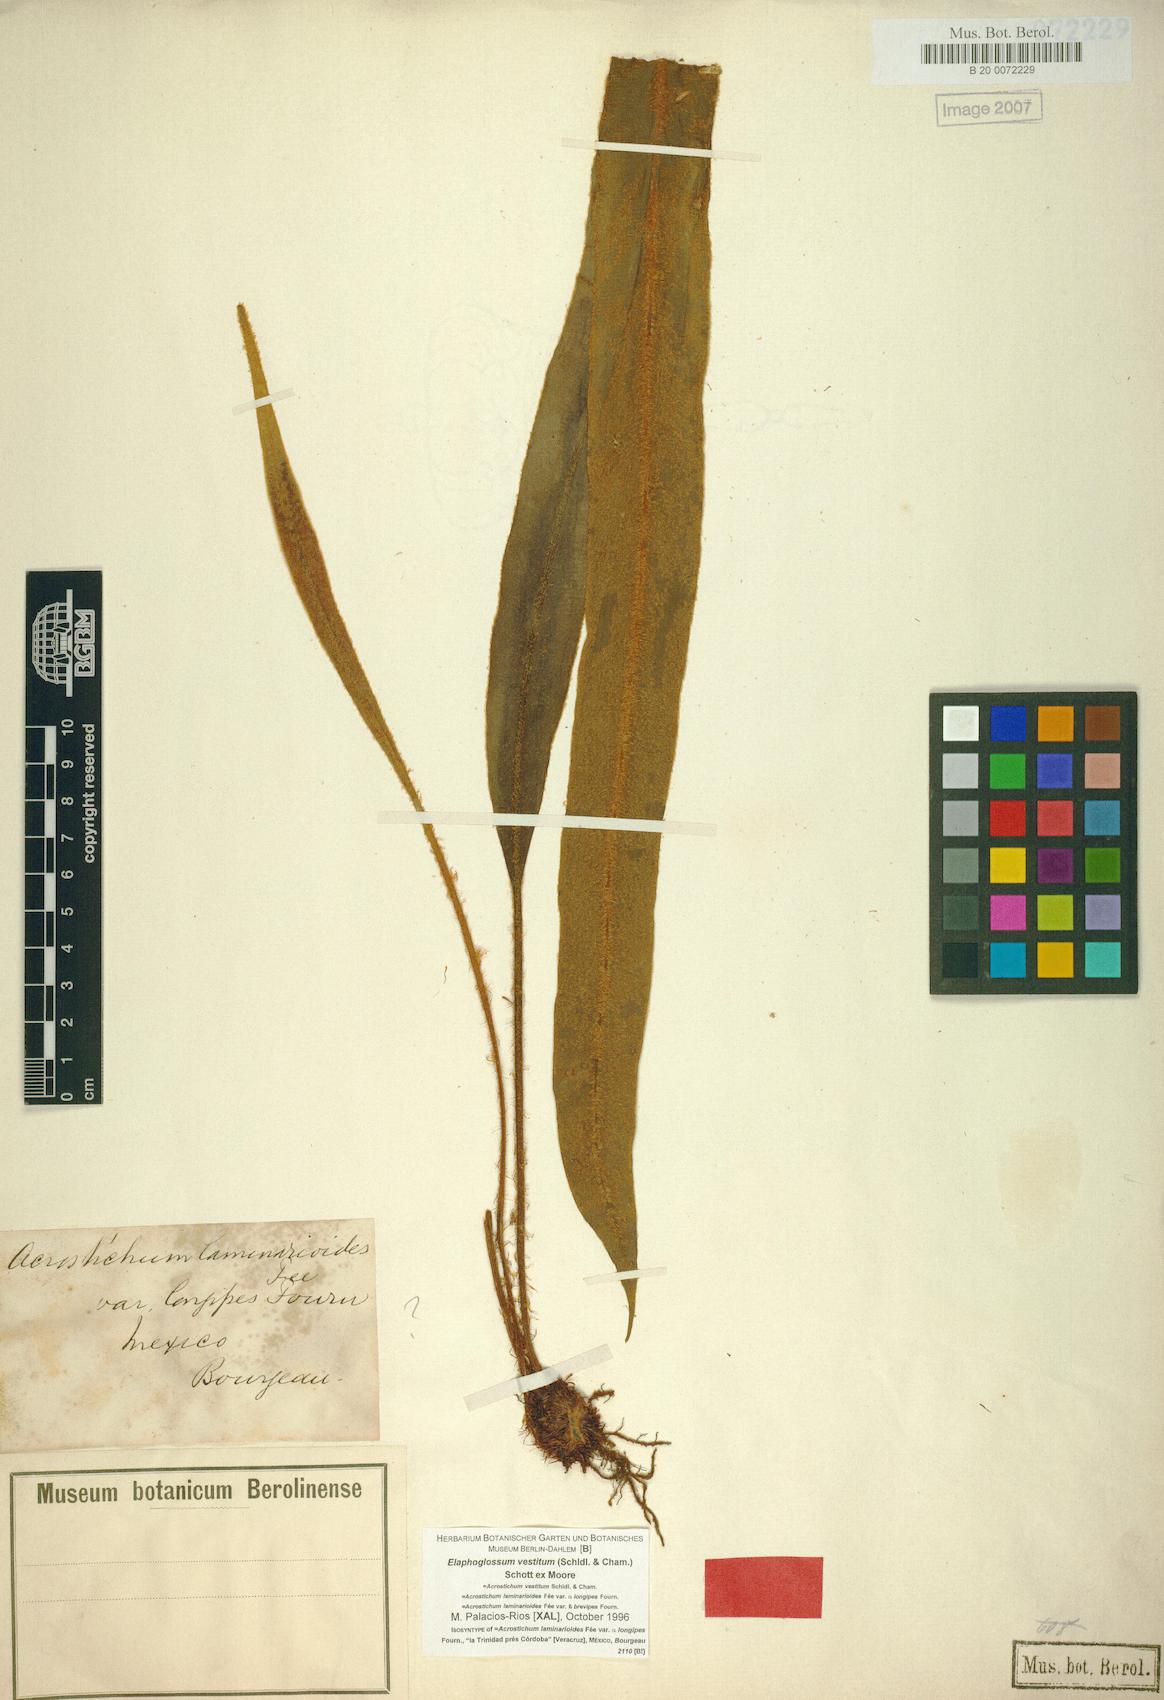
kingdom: Plantae
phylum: Tracheophyta
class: Polypodiopsida
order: Polypodiales
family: Dryopteridaceae
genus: Elaphoglossum
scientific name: Elaphoglossum vestitum
